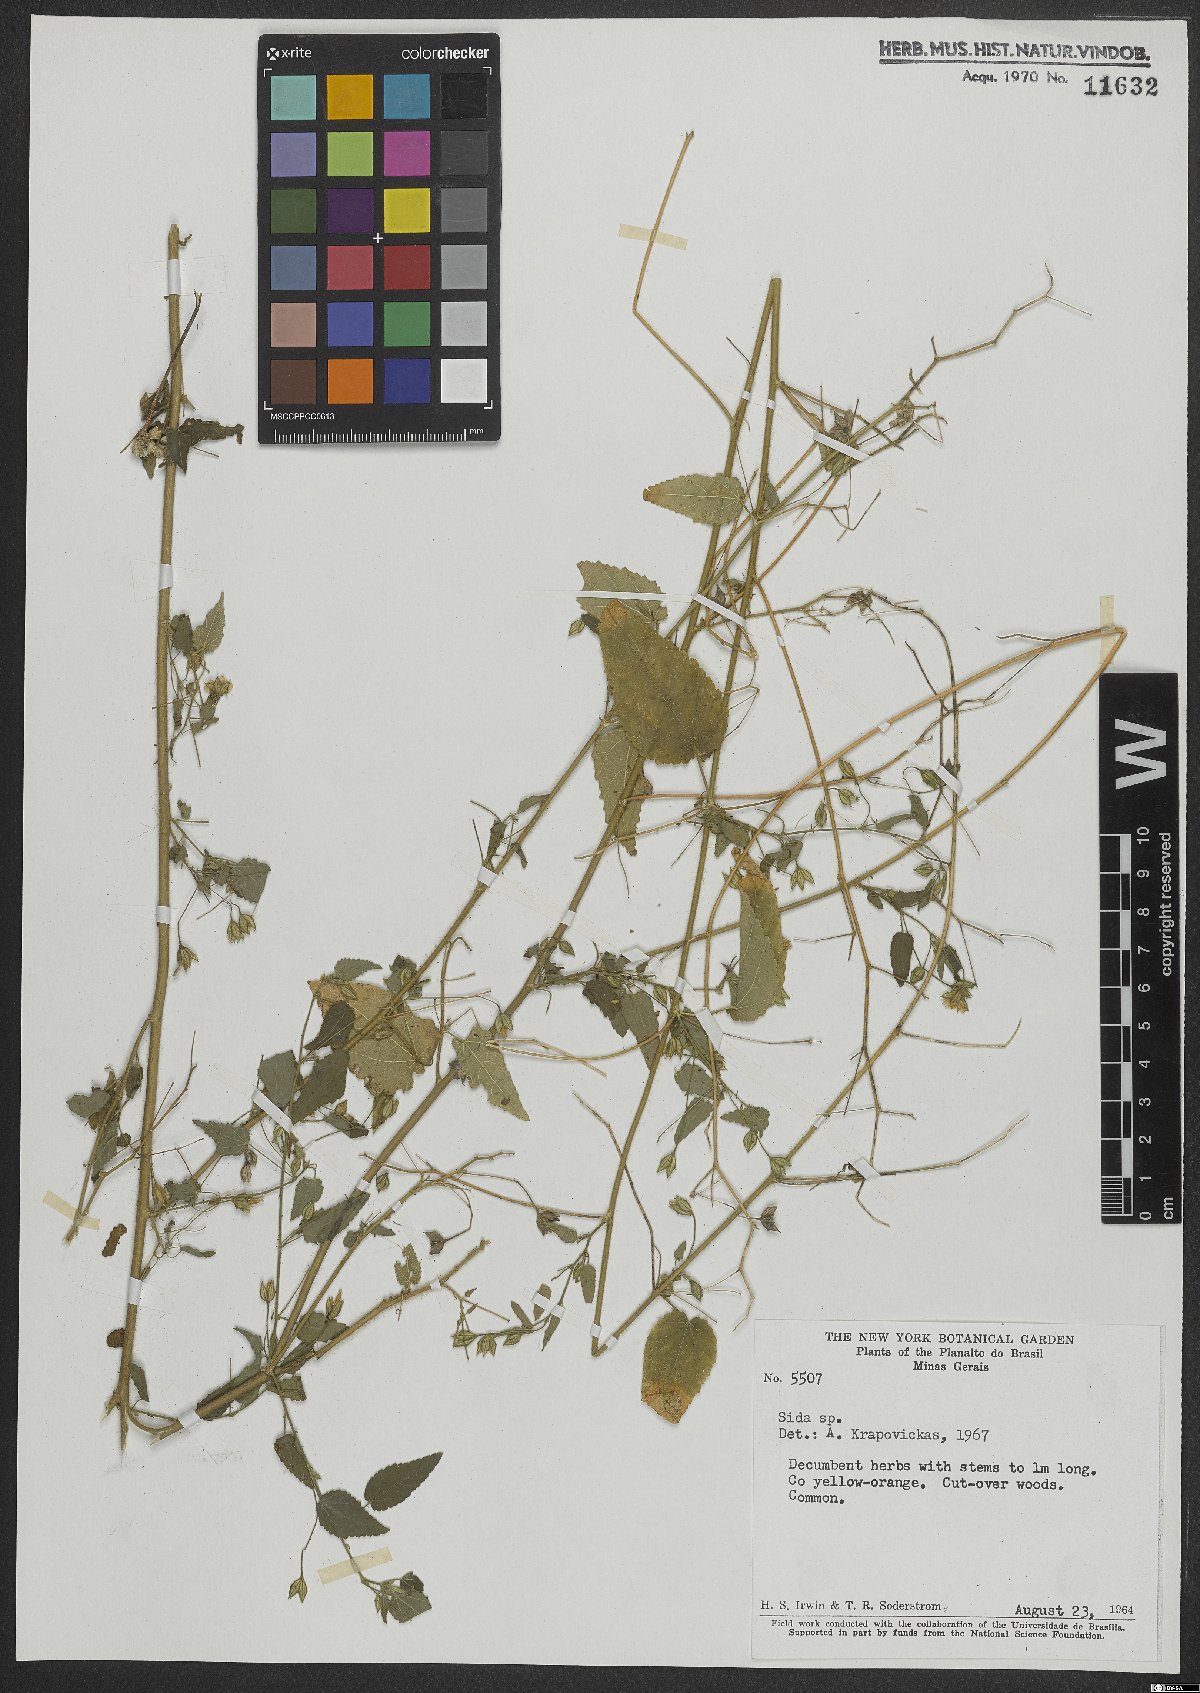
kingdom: Plantae
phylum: Tracheophyta
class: Magnoliopsida
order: Malvales
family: Malvaceae
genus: Sida
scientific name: Sida
